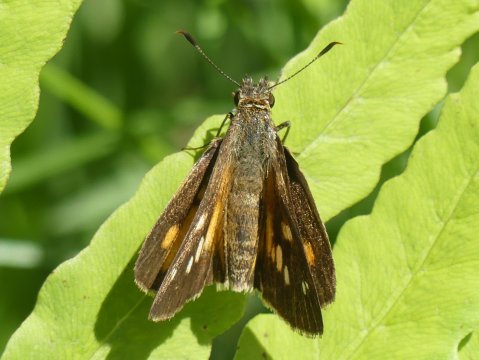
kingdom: Animalia
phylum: Arthropoda
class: Insecta
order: Lepidoptera
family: Hesperiidae
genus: Poanes
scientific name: Poanes viator
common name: Broad-winged Skipper
